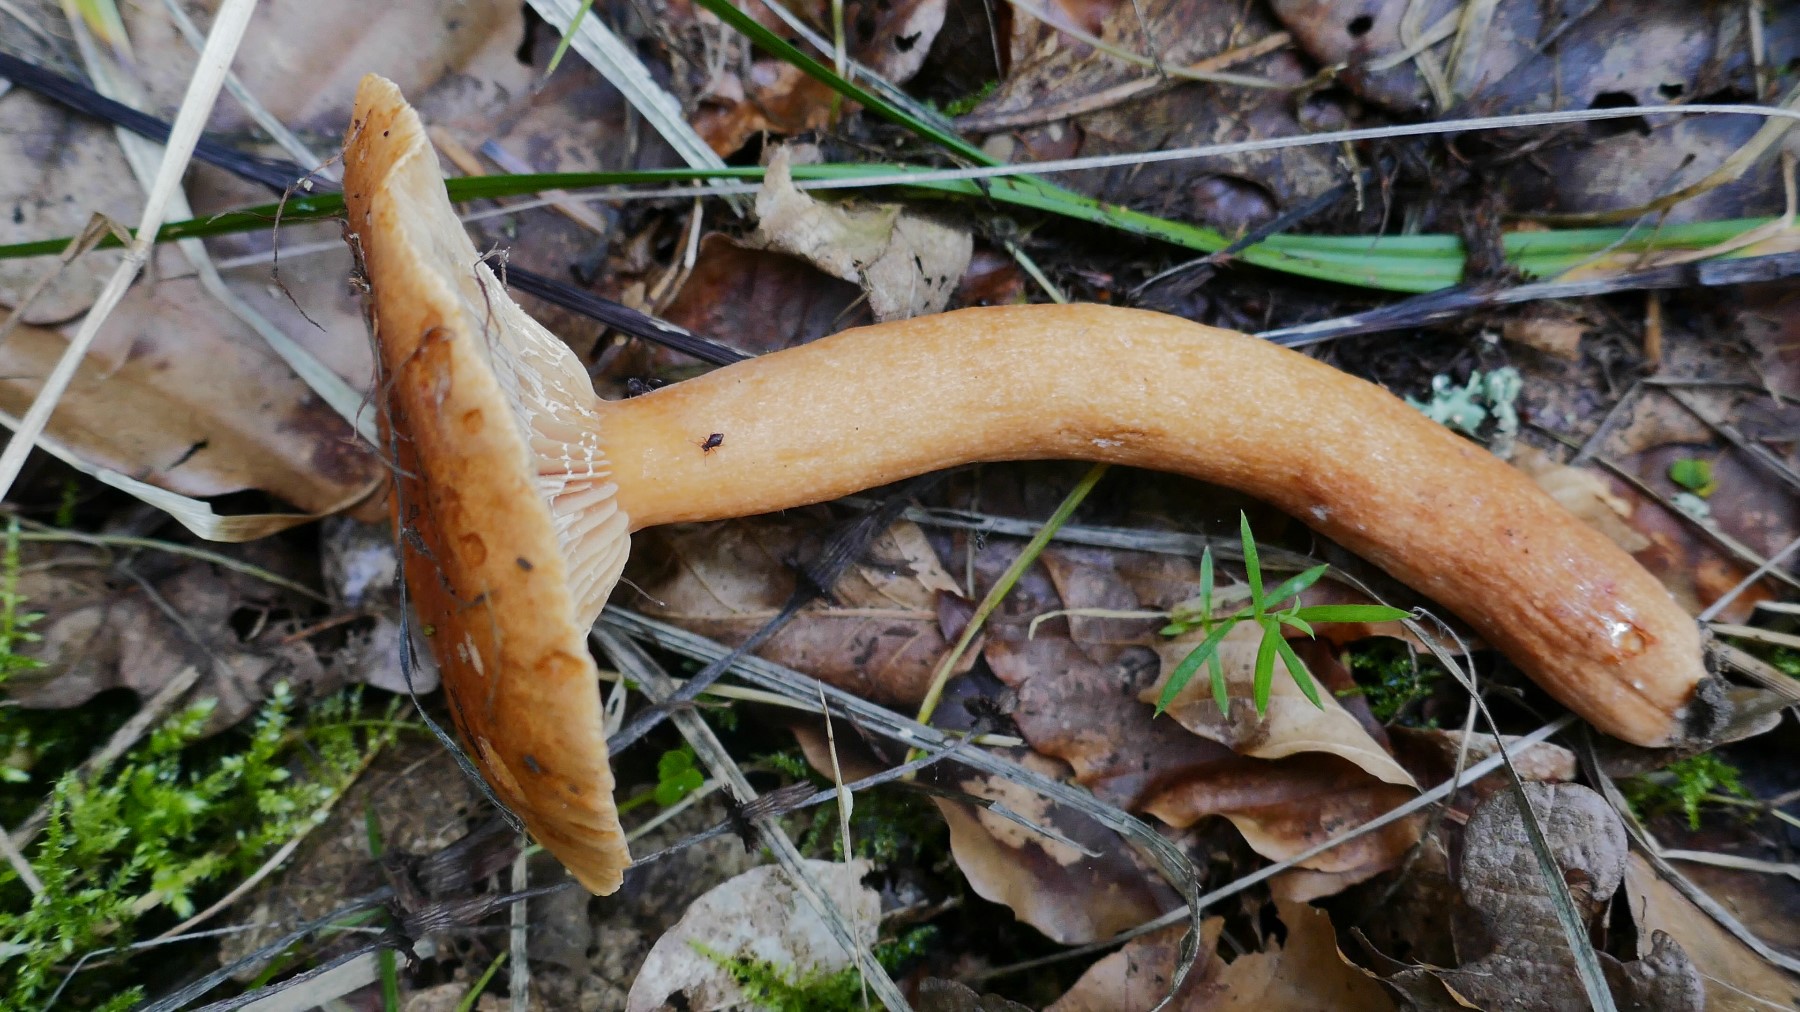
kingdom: Fungi
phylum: Basidiomycota
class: Agaricomycetes
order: Russulales
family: Russulaceae
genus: Lactarius
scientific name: Lactarius fulvissimus
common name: ræve-mælkehat
